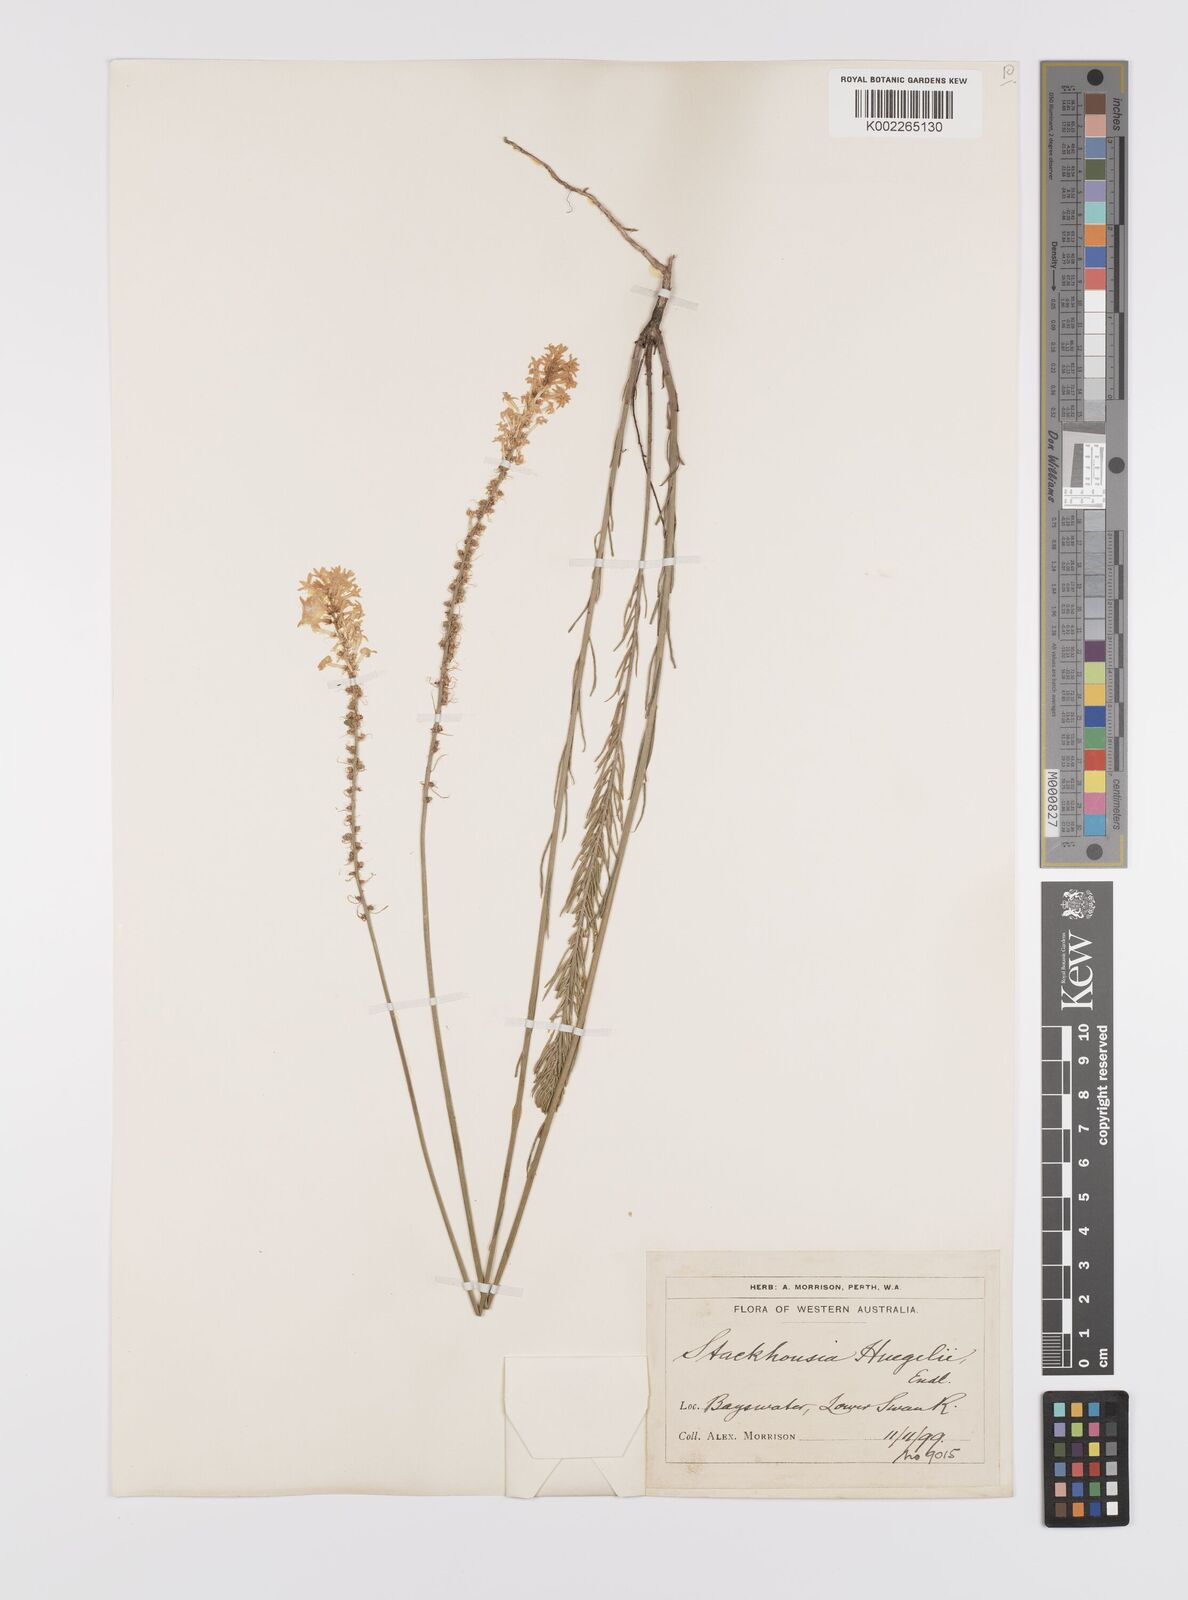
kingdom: Plantae
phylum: Tracheophyta
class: Magnoliopsida
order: Celastrales
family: Celastraceae
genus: Stackhousia
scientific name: Stackhousia monogyna
